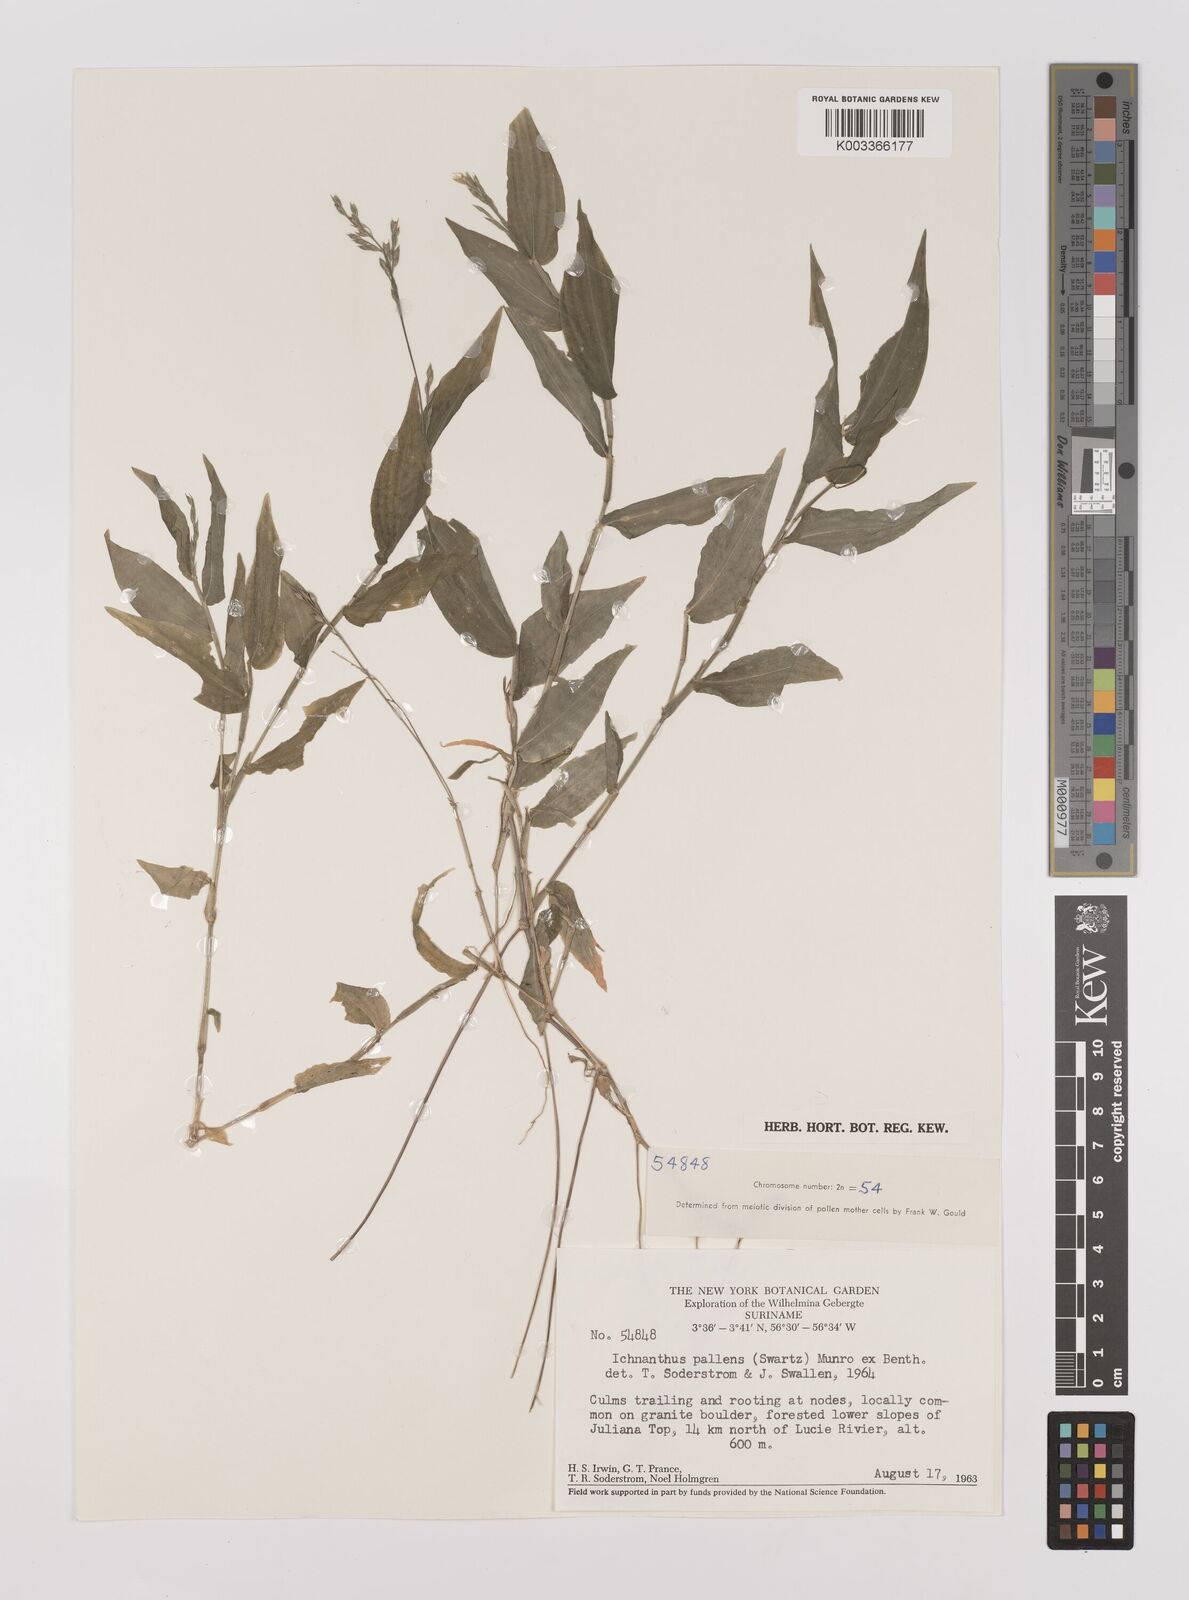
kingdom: Plantae
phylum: Tracheophyta
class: Liliopsida
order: Poales
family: Poaceae
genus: Ichnanthus
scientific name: Ichnanthus pallens
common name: Water grass
